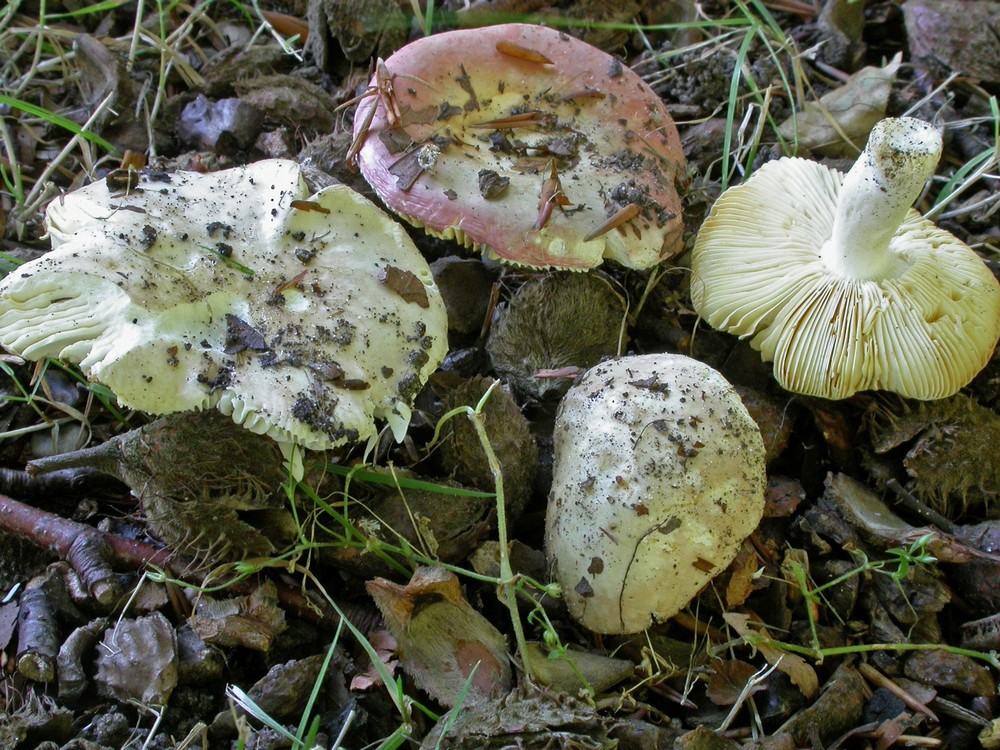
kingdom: Fungi
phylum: Basidiomycota
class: Agaricomycetes
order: Russulales
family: Russulaceae
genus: Russula
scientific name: Russula veternosa
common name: blødkødet skørhat
